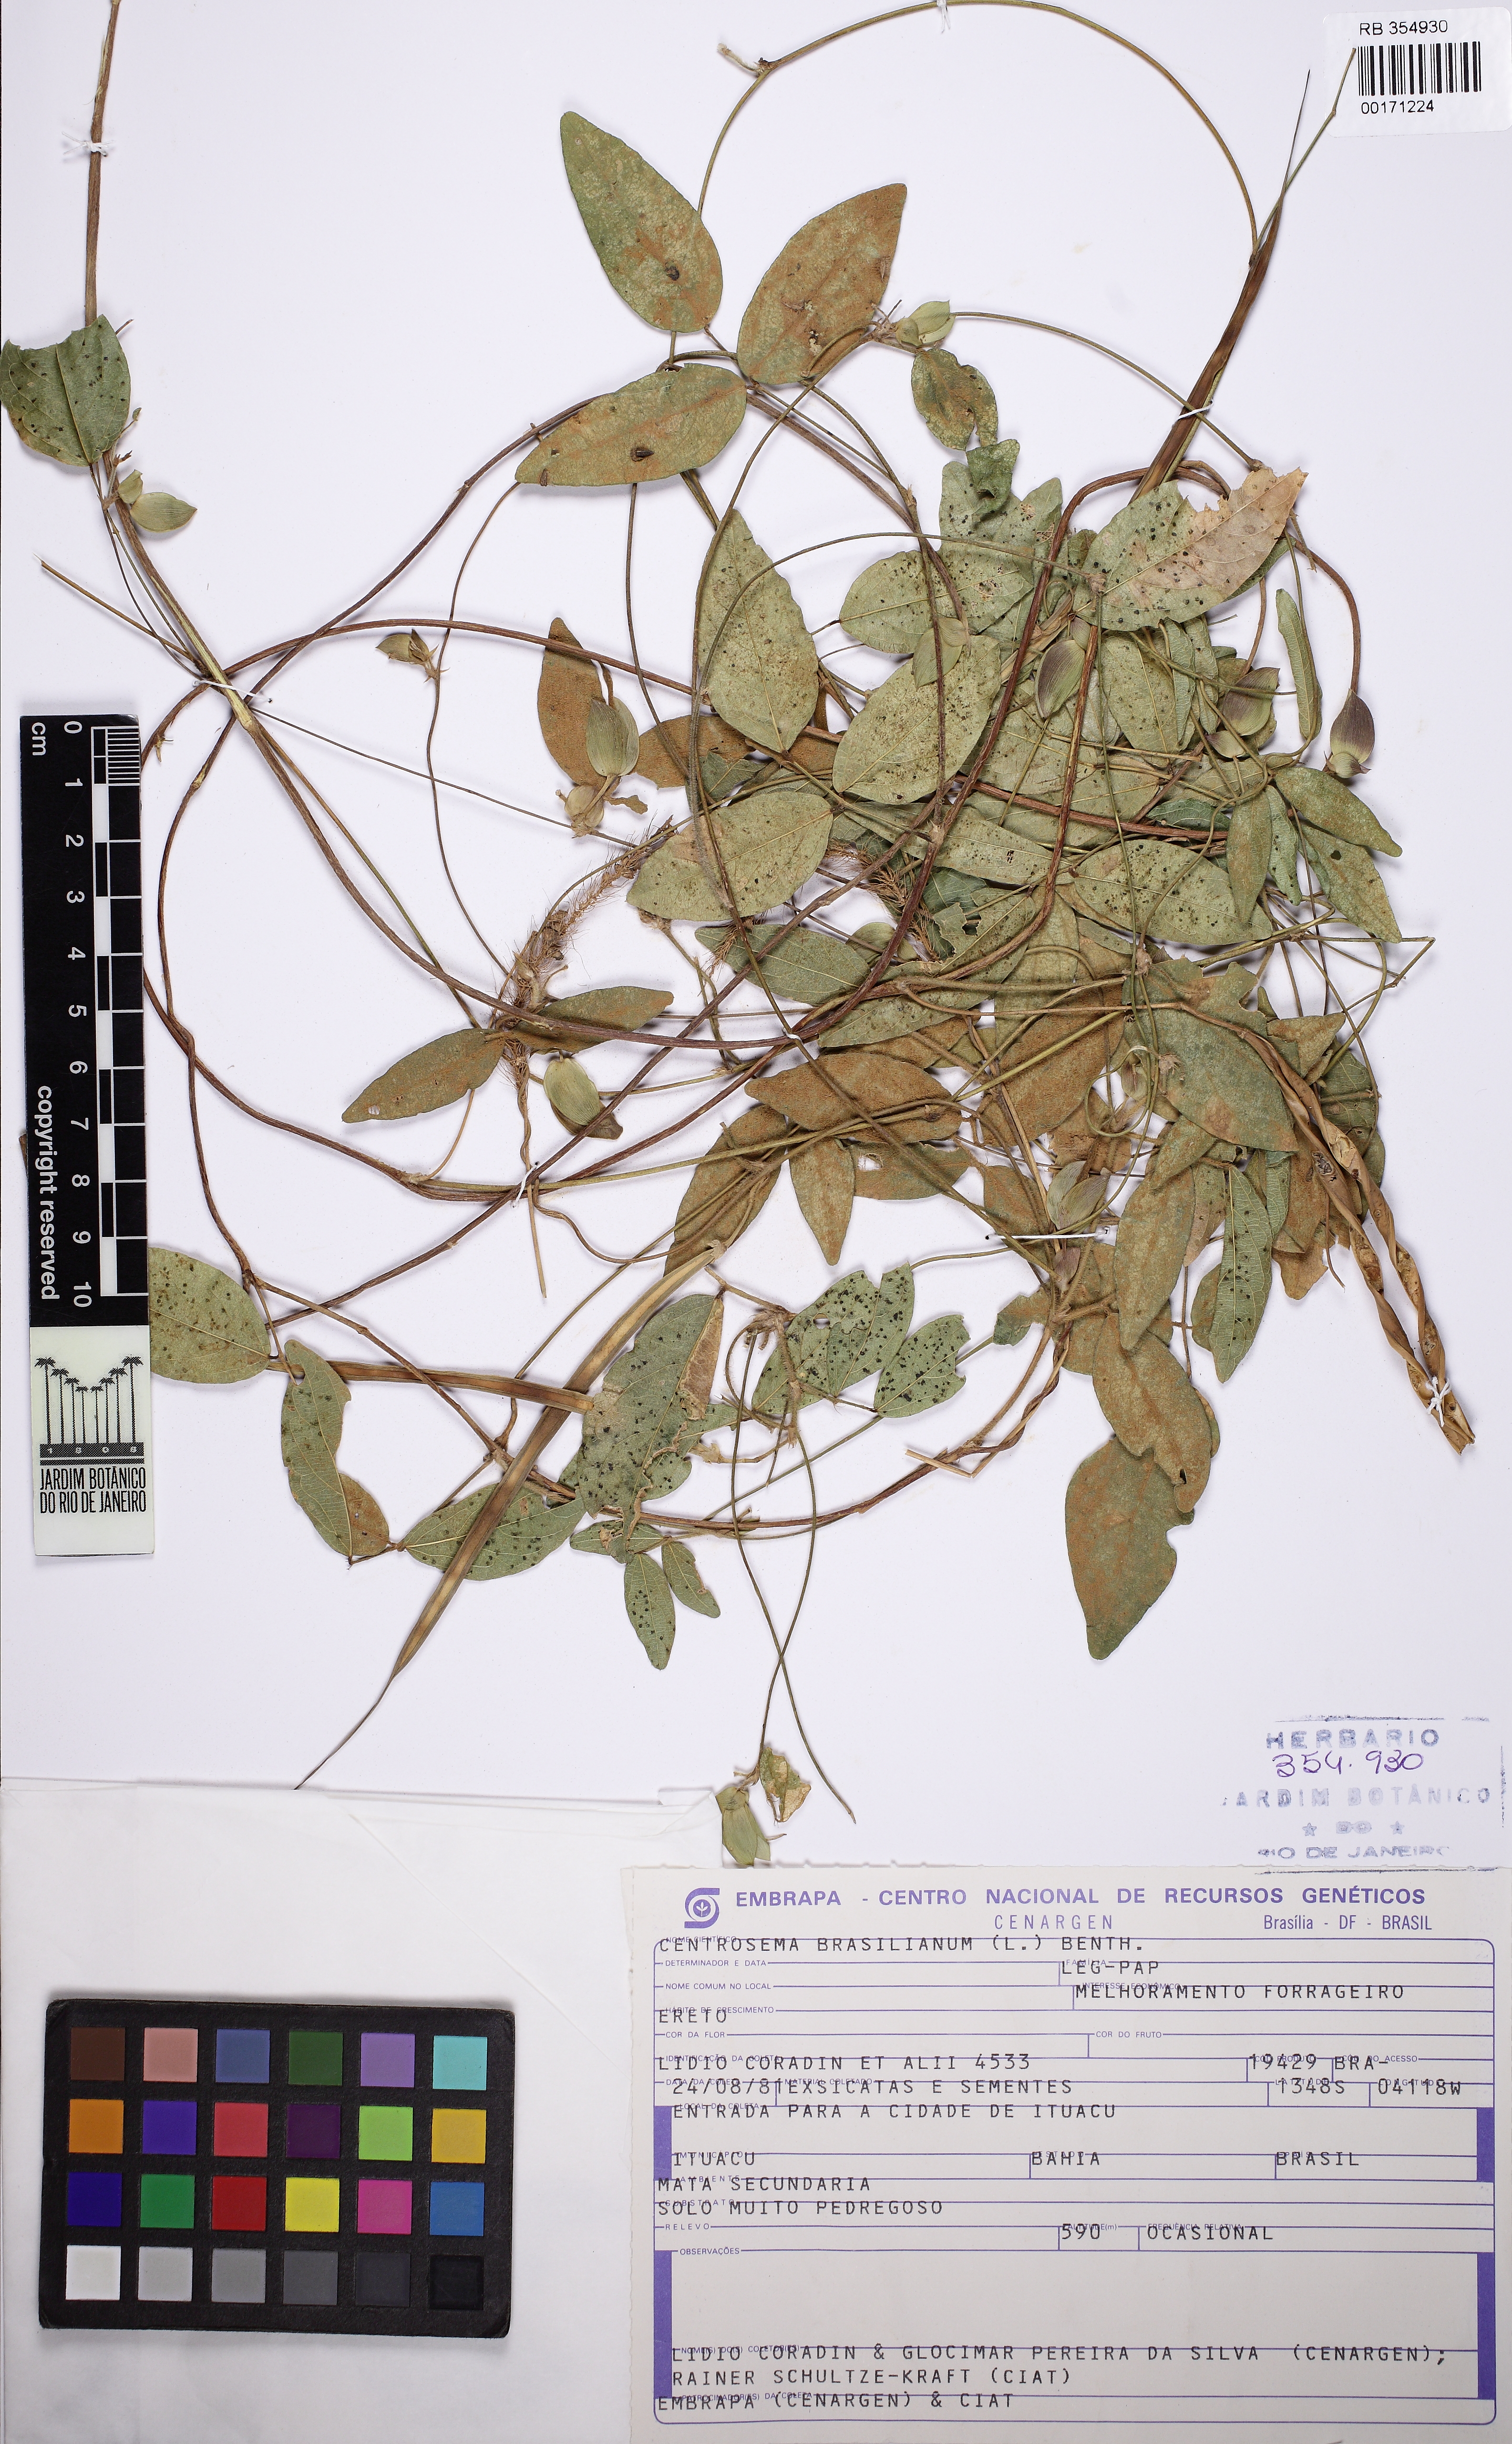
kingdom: Plantae
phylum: Tracheophyta
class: Magnoliopsida
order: Fabales
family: Fabaceae
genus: Centrosema
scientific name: Centrosema brasilianum
